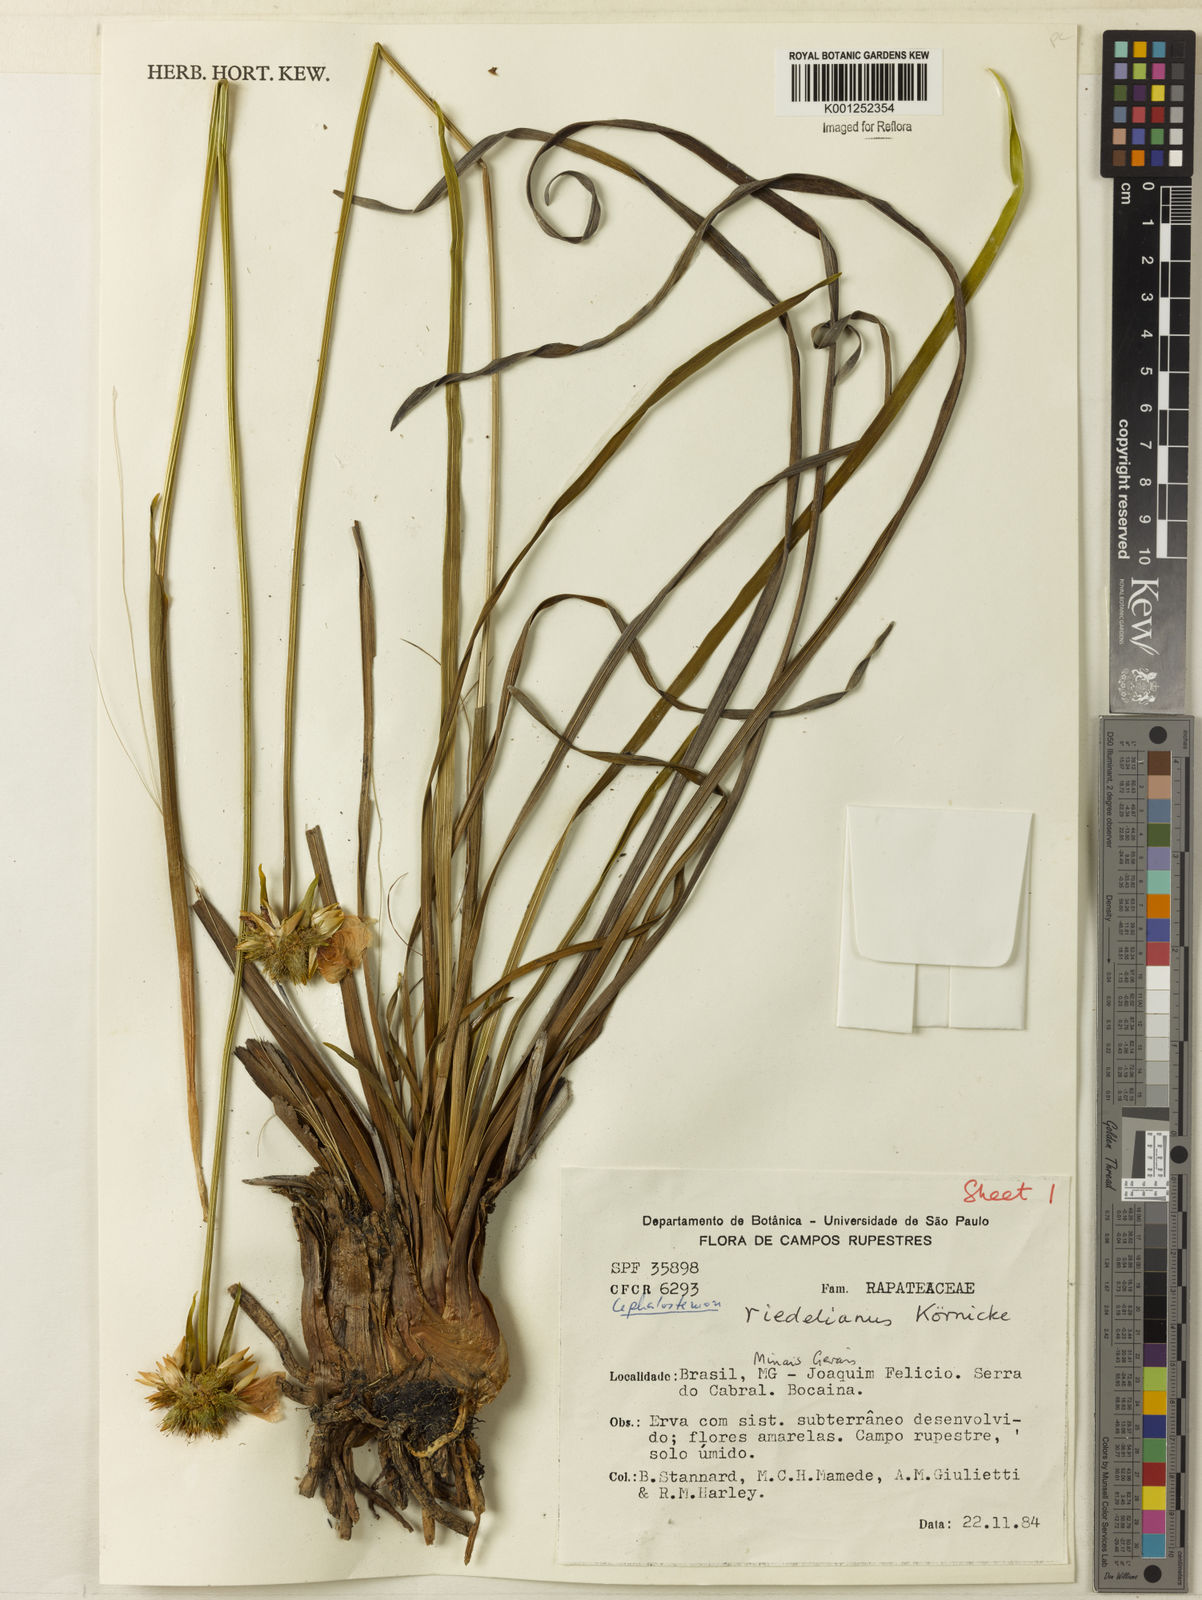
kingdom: Plantae
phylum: Tracheophyta
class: Liliopsida
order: Poales
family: Rapateaceae
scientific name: Rapateaceae
